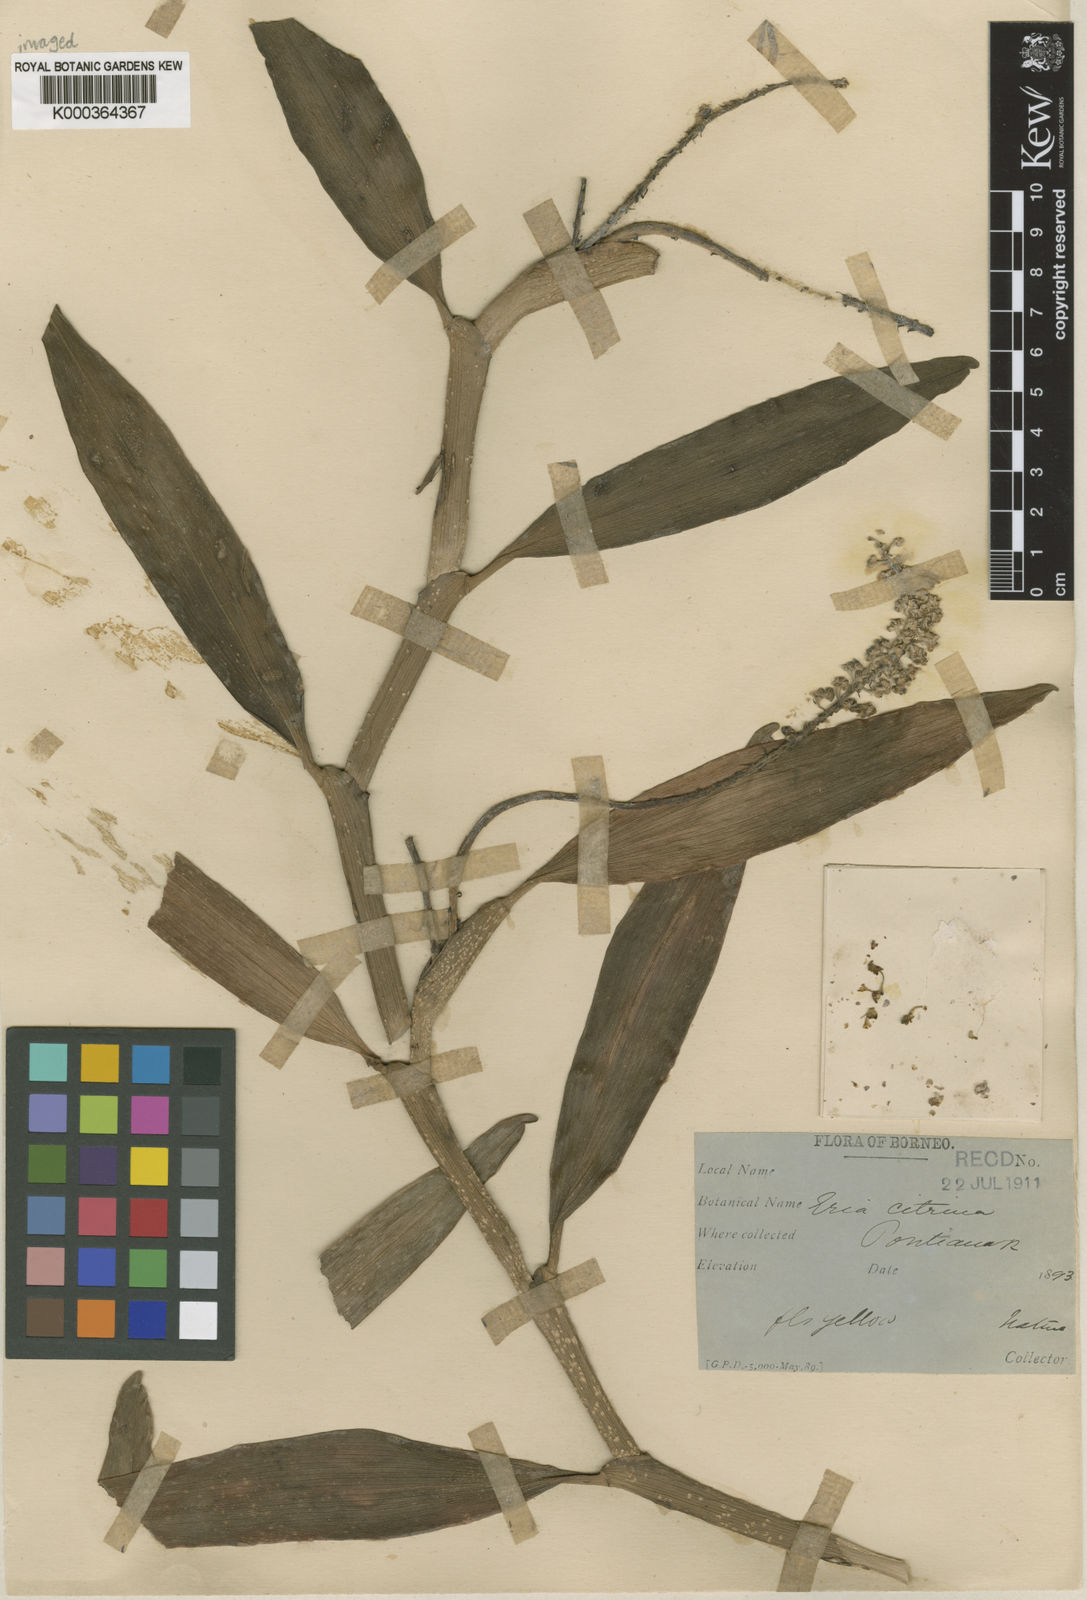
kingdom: Plantae
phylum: Tracheophyta
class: Liliopsida
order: Asparagales
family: Orchidaceae
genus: Mycaranthes
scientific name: Mycaranthes citrina
